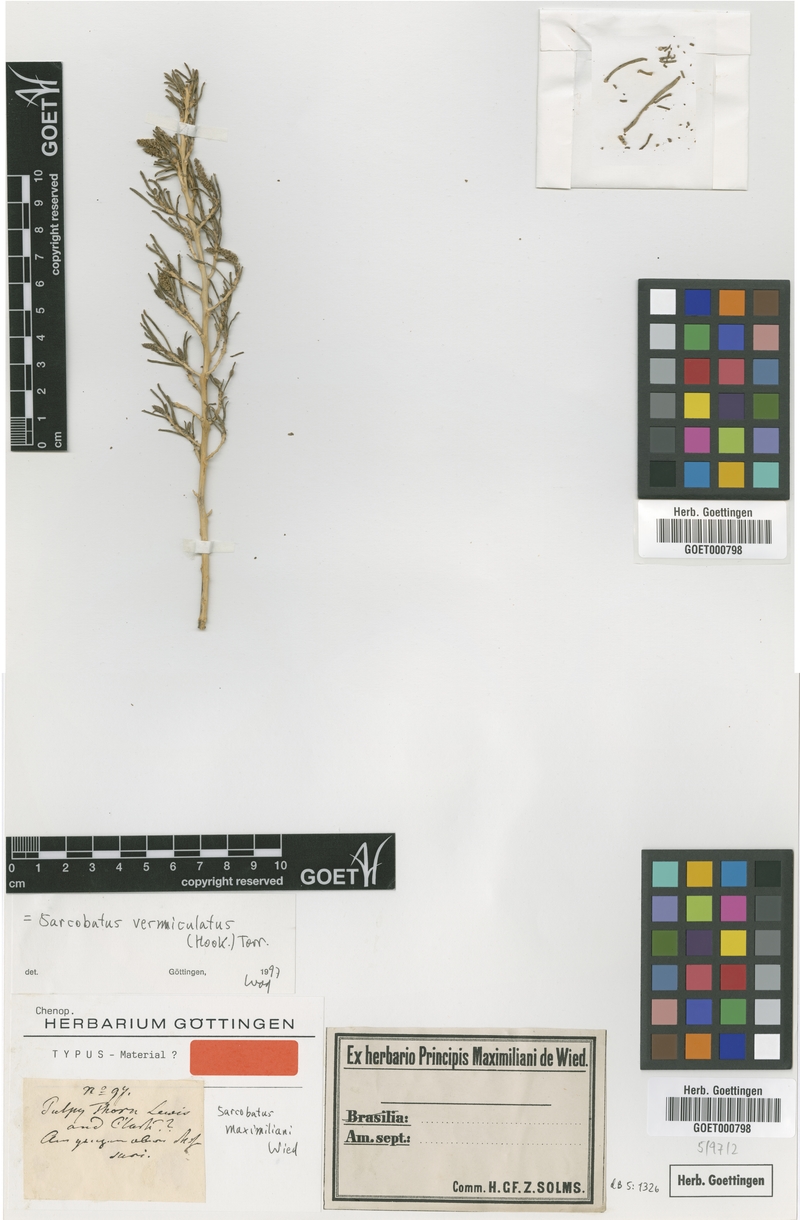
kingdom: Plantae
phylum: Tracheophyta
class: Magnoliopsida
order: Caryophyllales
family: Sarcobataceae
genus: Sarcobatus
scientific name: Sarcobatus vermiculatus
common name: Greasewood
